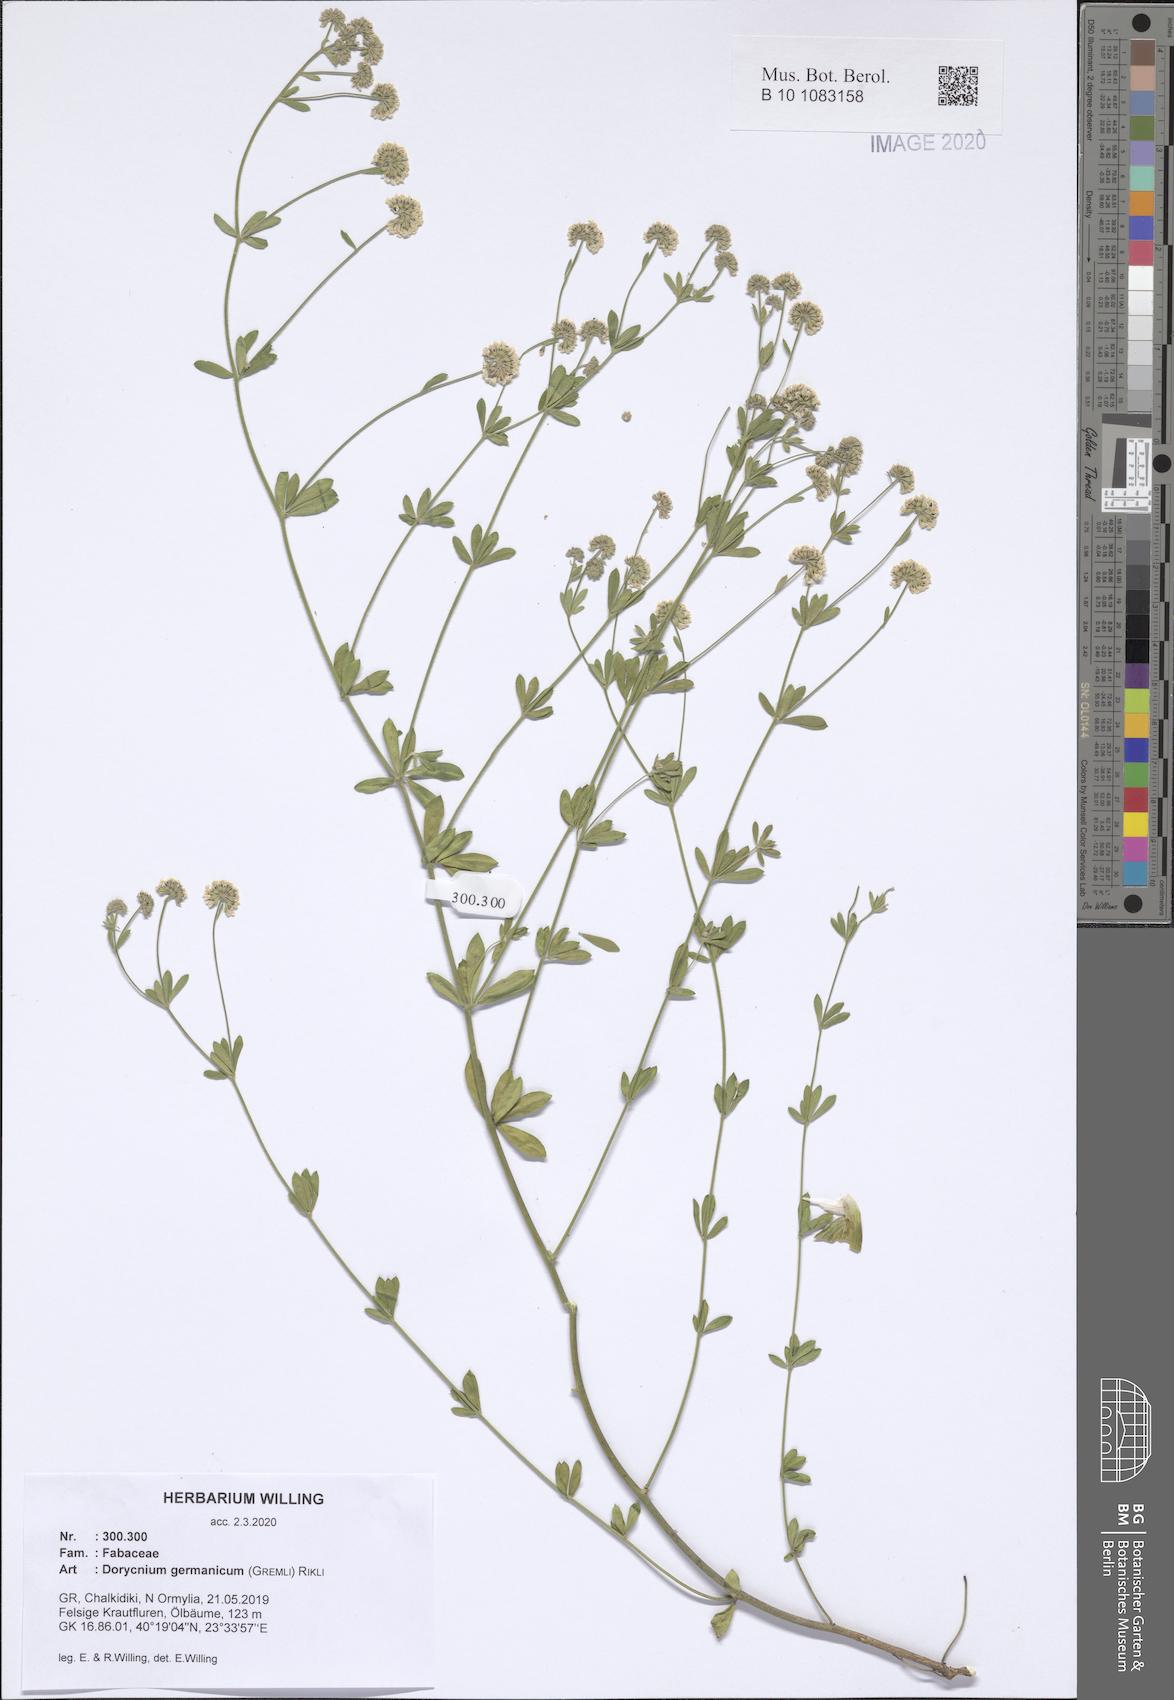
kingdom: Plantae
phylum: Tracheophyta
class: Magnoliopsida
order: Fabales
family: Fabaceae
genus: Lotus
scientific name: Lotus germanicus
